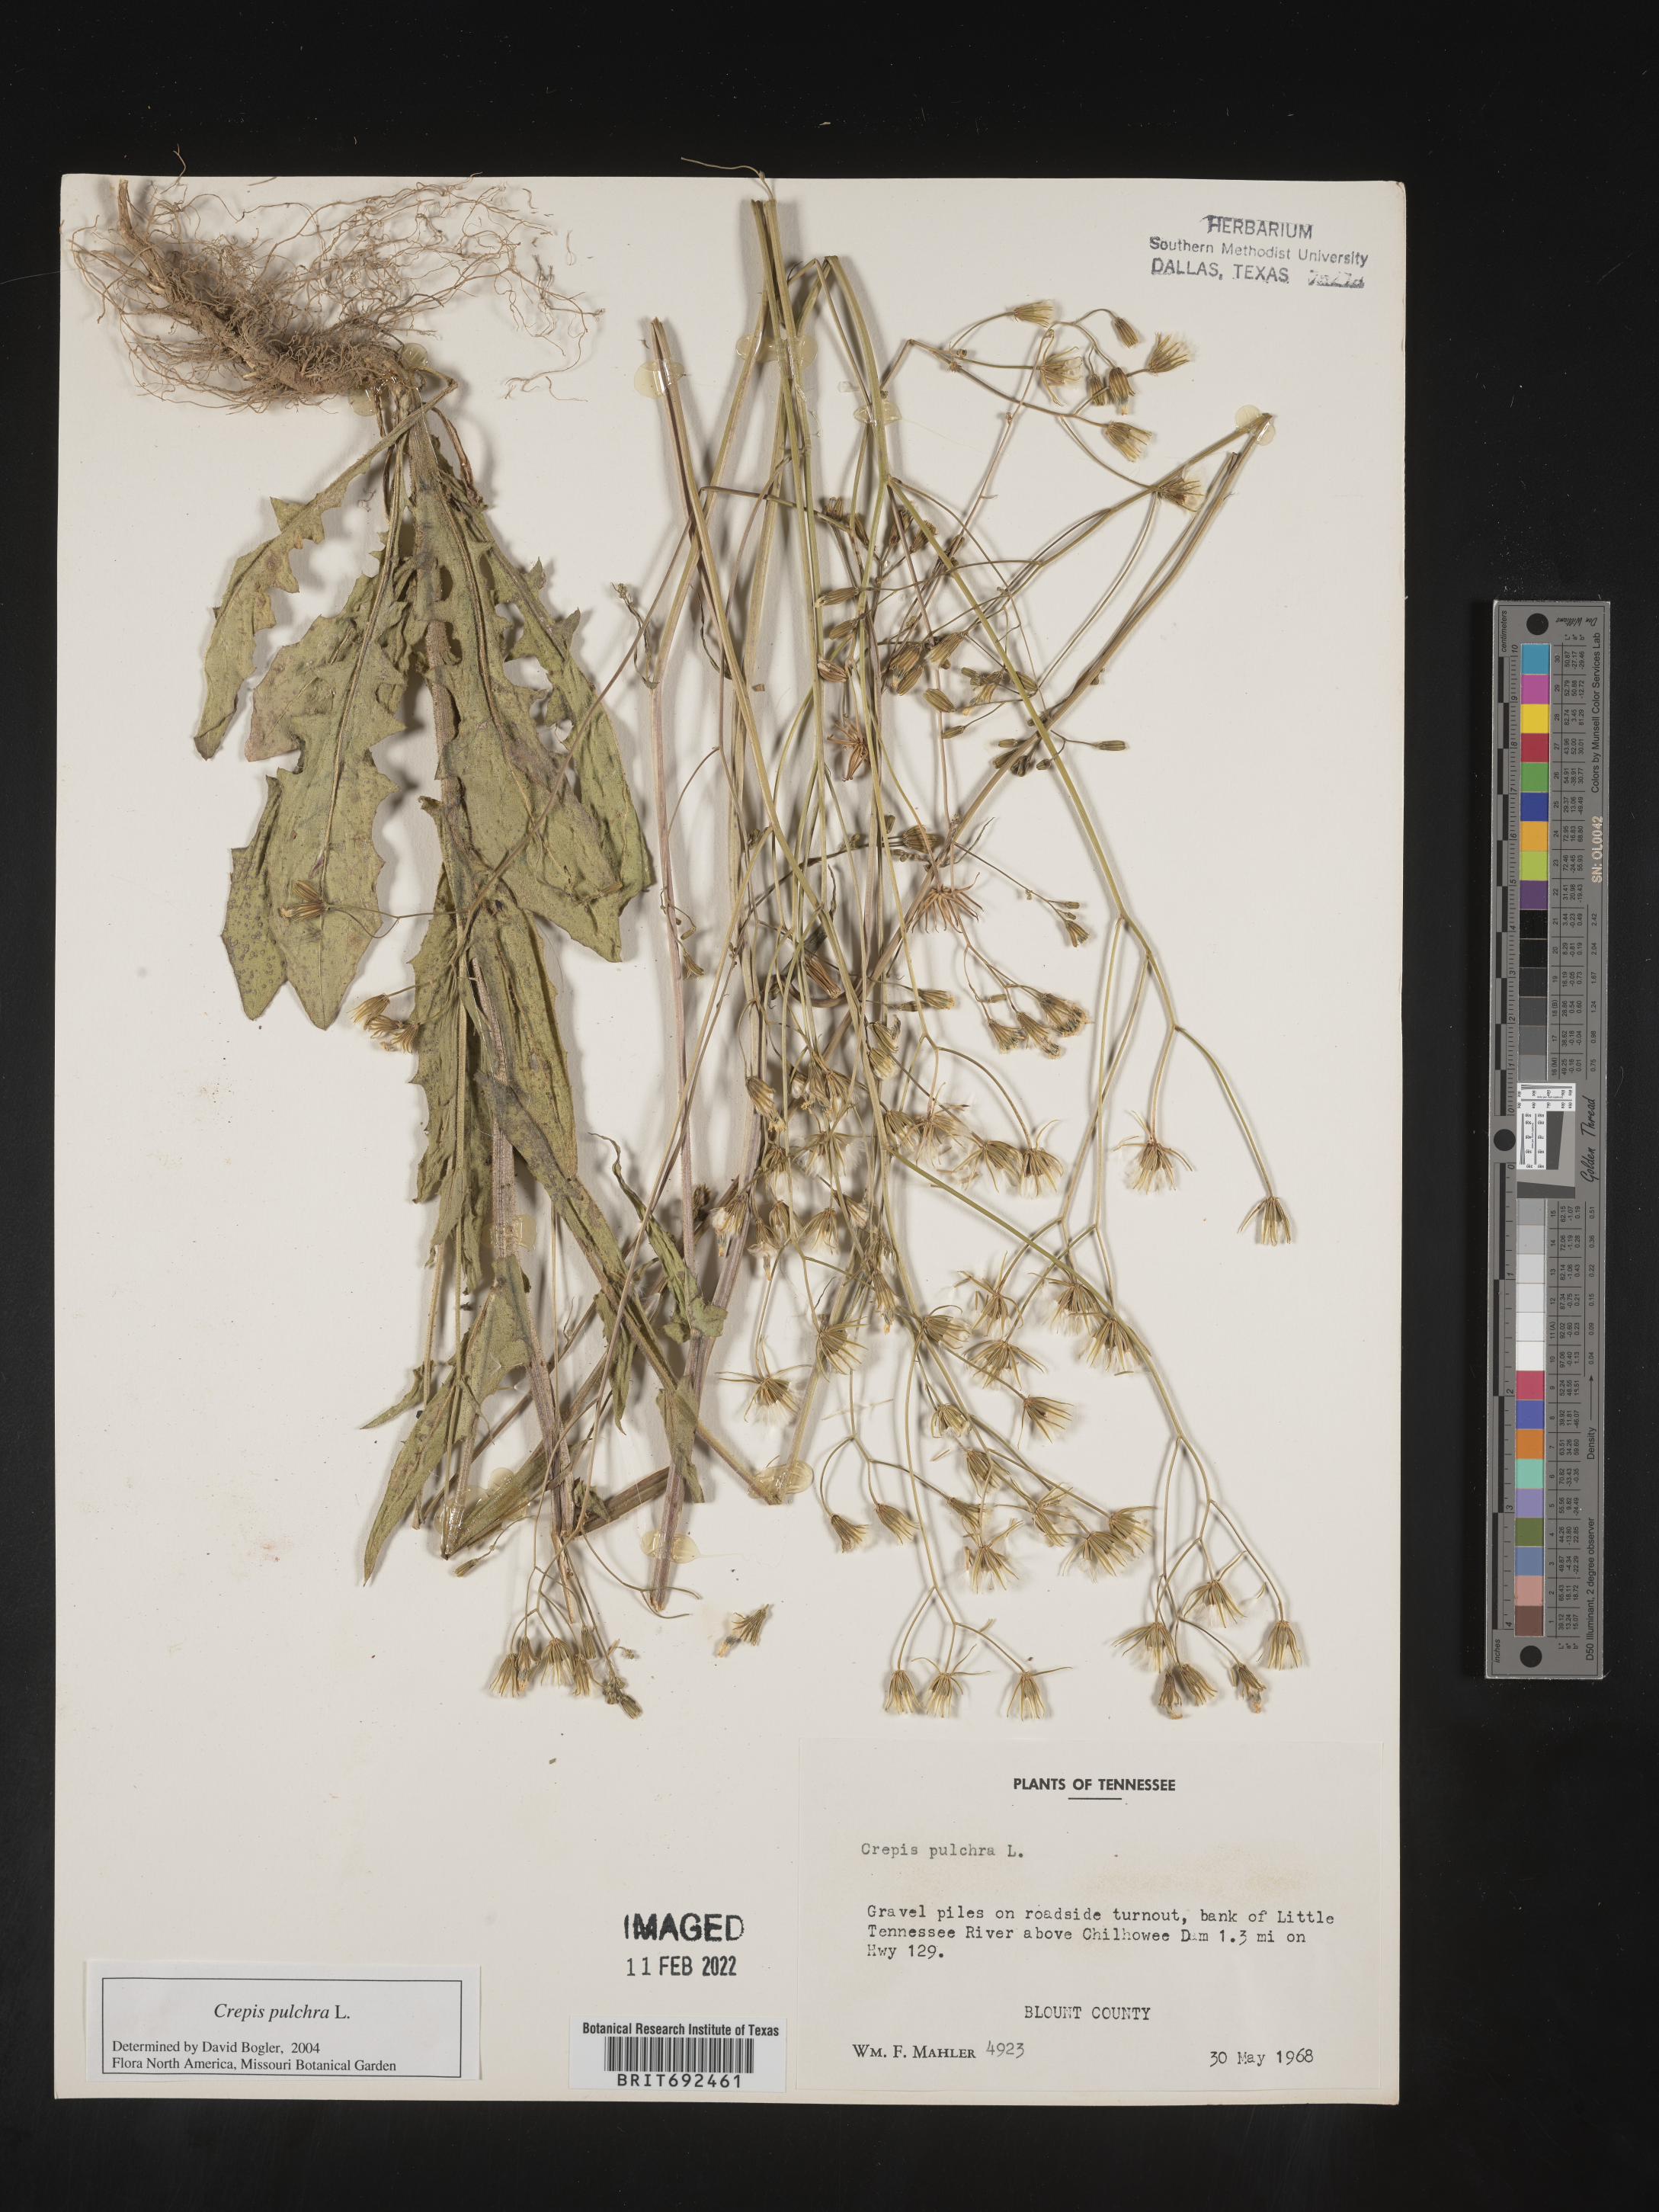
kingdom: Plantae
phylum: Tracheophyta
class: Magnoliopsida
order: Asterales
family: Asteraceae
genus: Crepis
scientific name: Crepis pulchra
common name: Hawk's-beard
